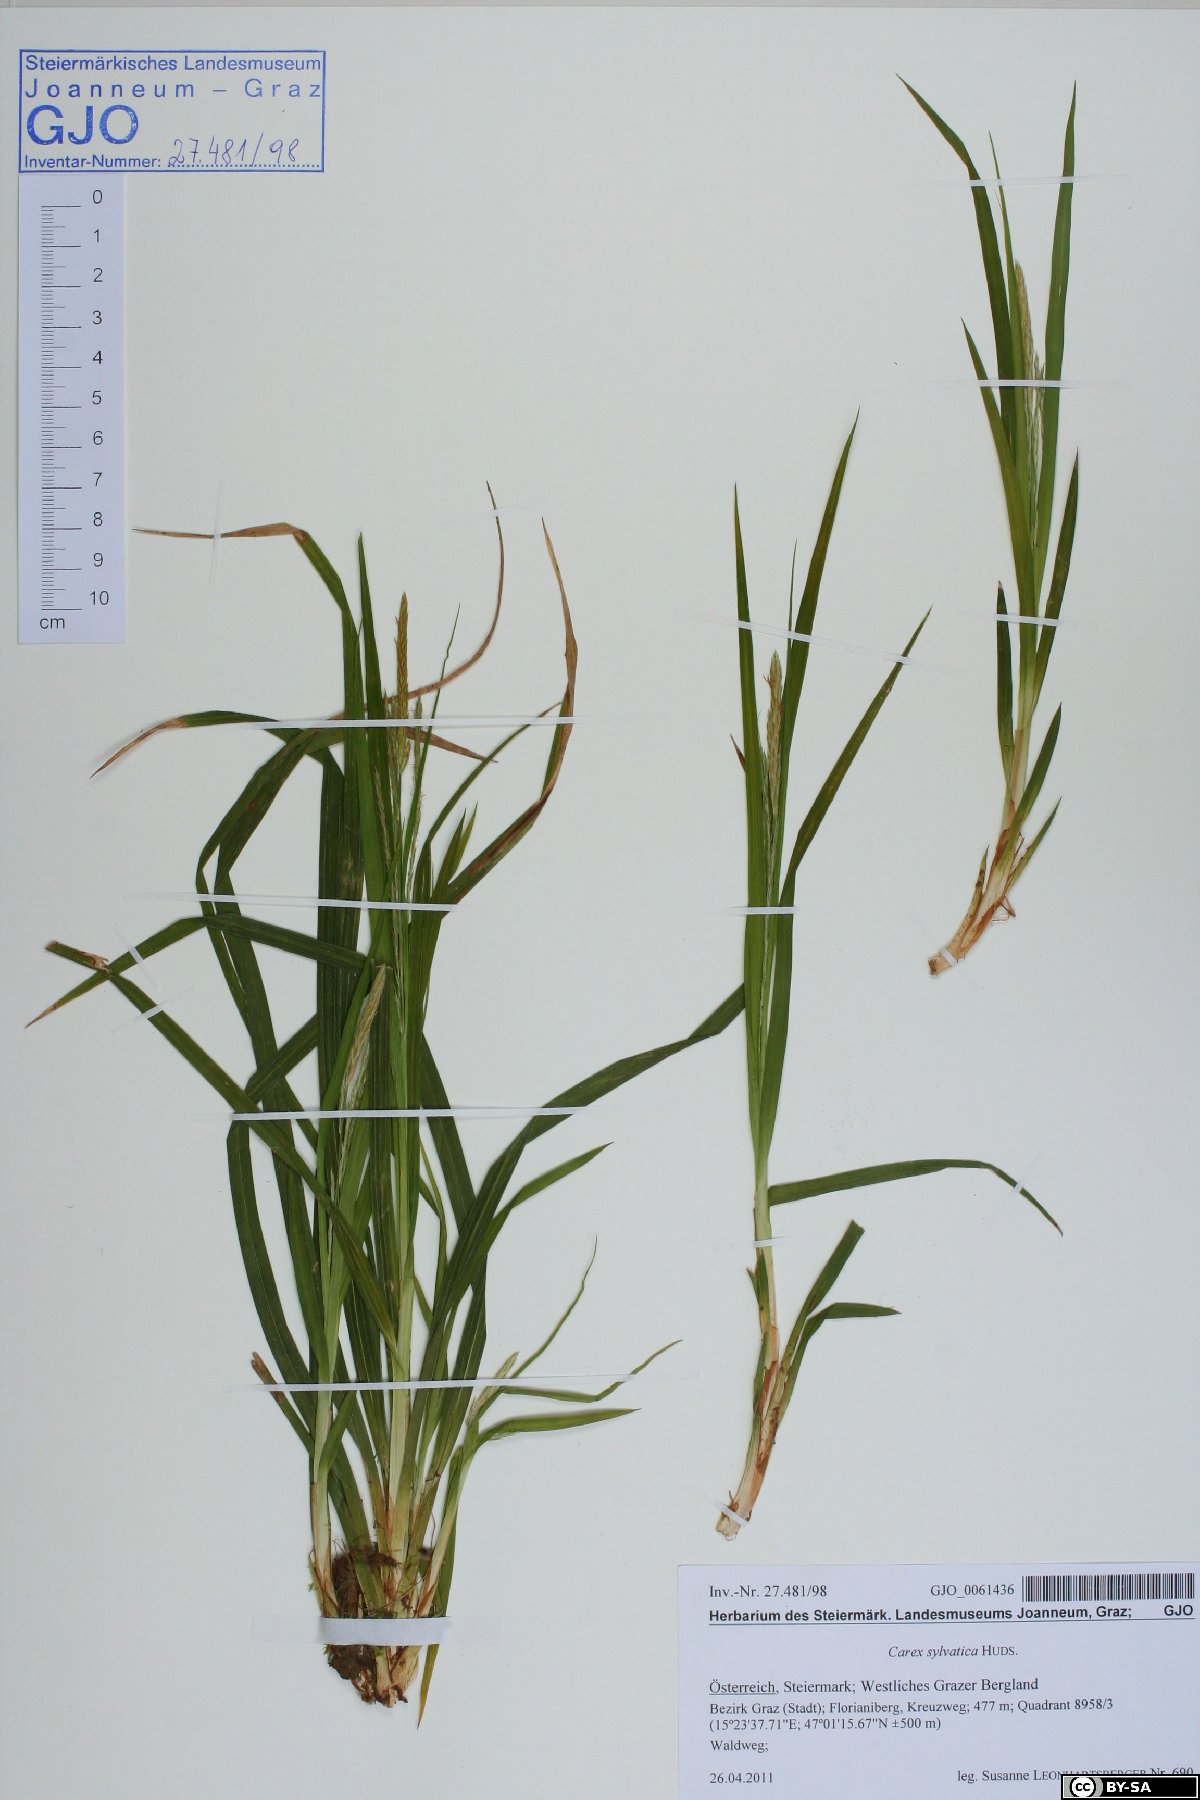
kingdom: Plantae
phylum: Tracheophyta
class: Liliopsida
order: Poales
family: Cyperaceae
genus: Carex
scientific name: Carex sylvatica
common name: Wood-sedge
